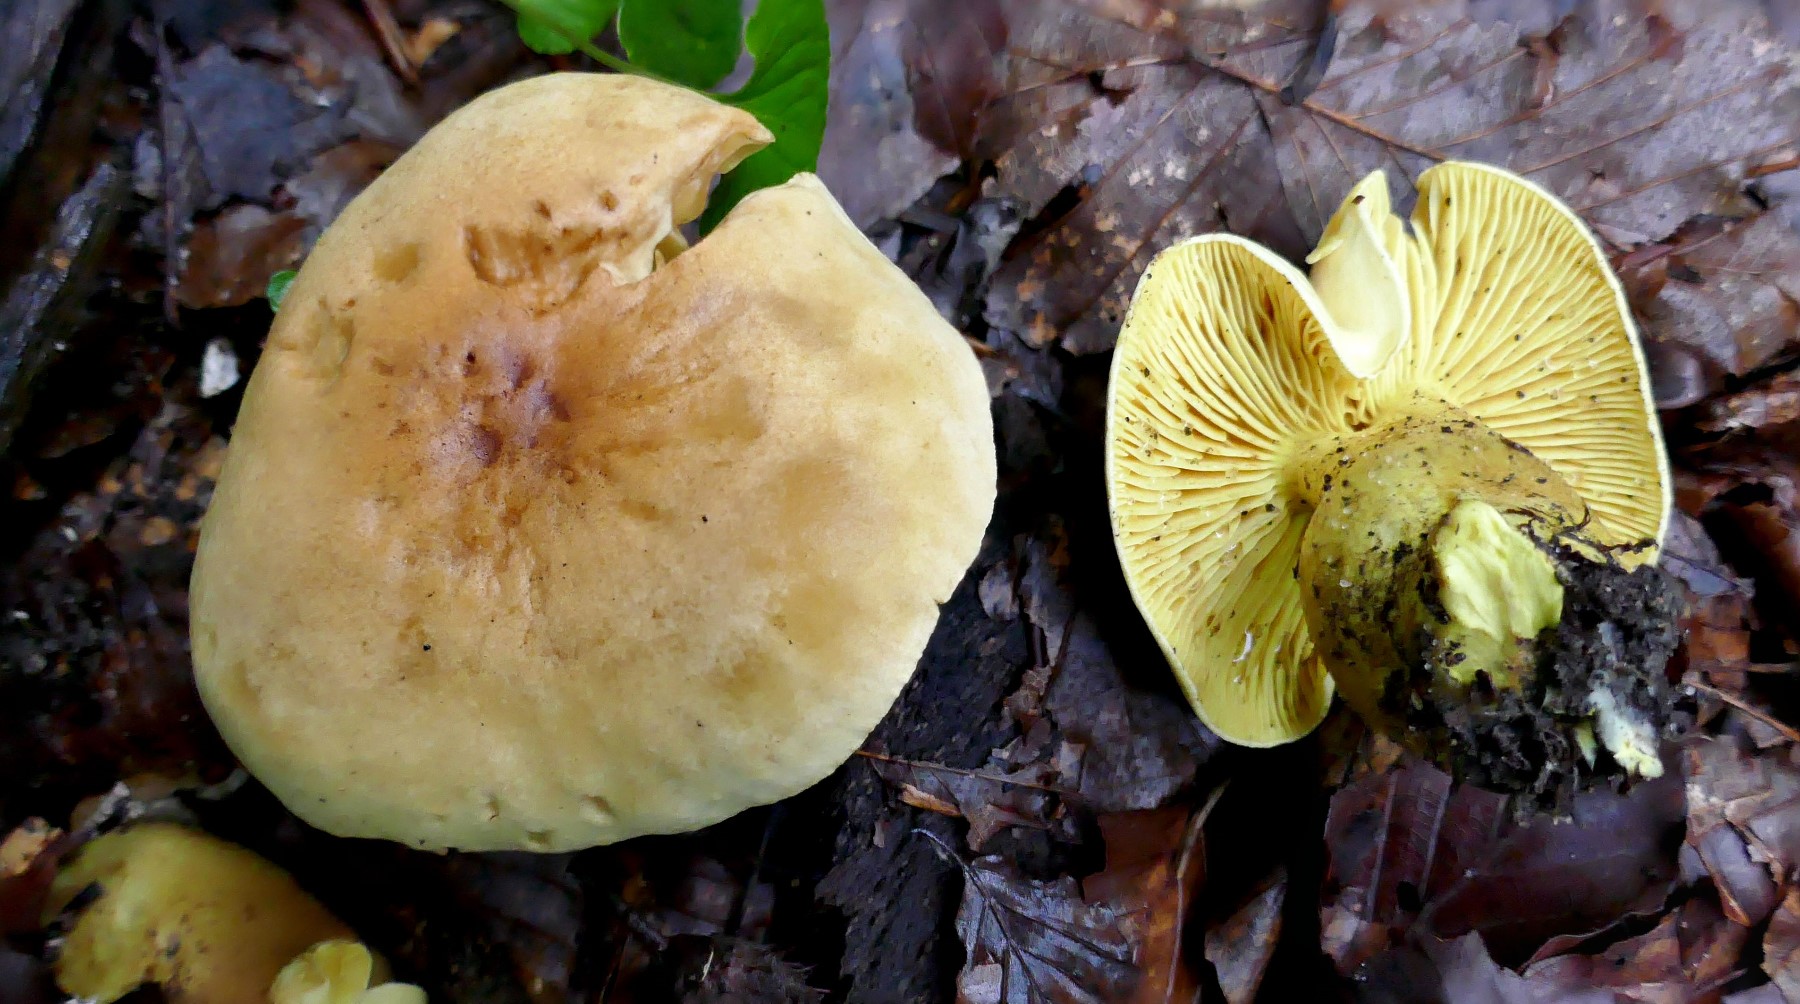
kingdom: Fungi
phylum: Basidiomycota
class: Agaricomycetes
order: Agaricales
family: Tricholomataceae
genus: Tricholoma
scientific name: Tricholoma sulphureum
